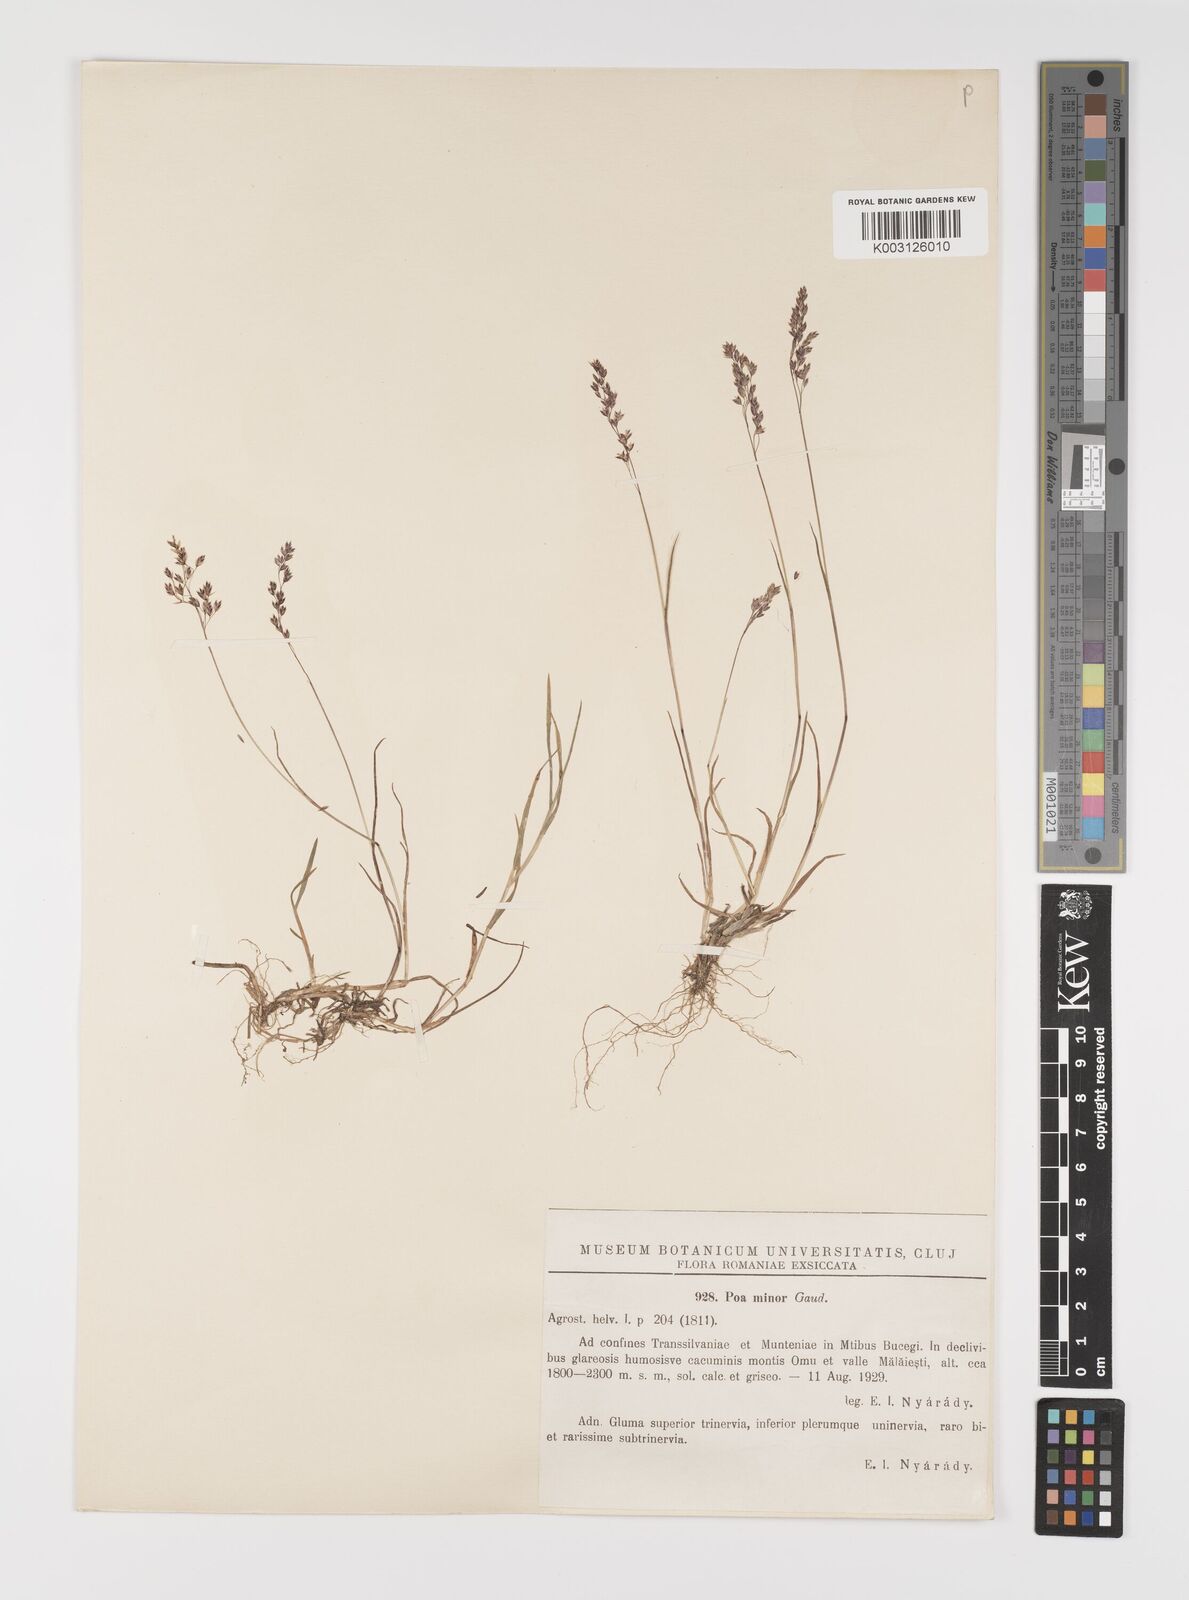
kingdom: Plantae
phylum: Tracheophyta
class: Liliopsida
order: Poales
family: Poaceae
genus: Poa
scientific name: Poa minor
